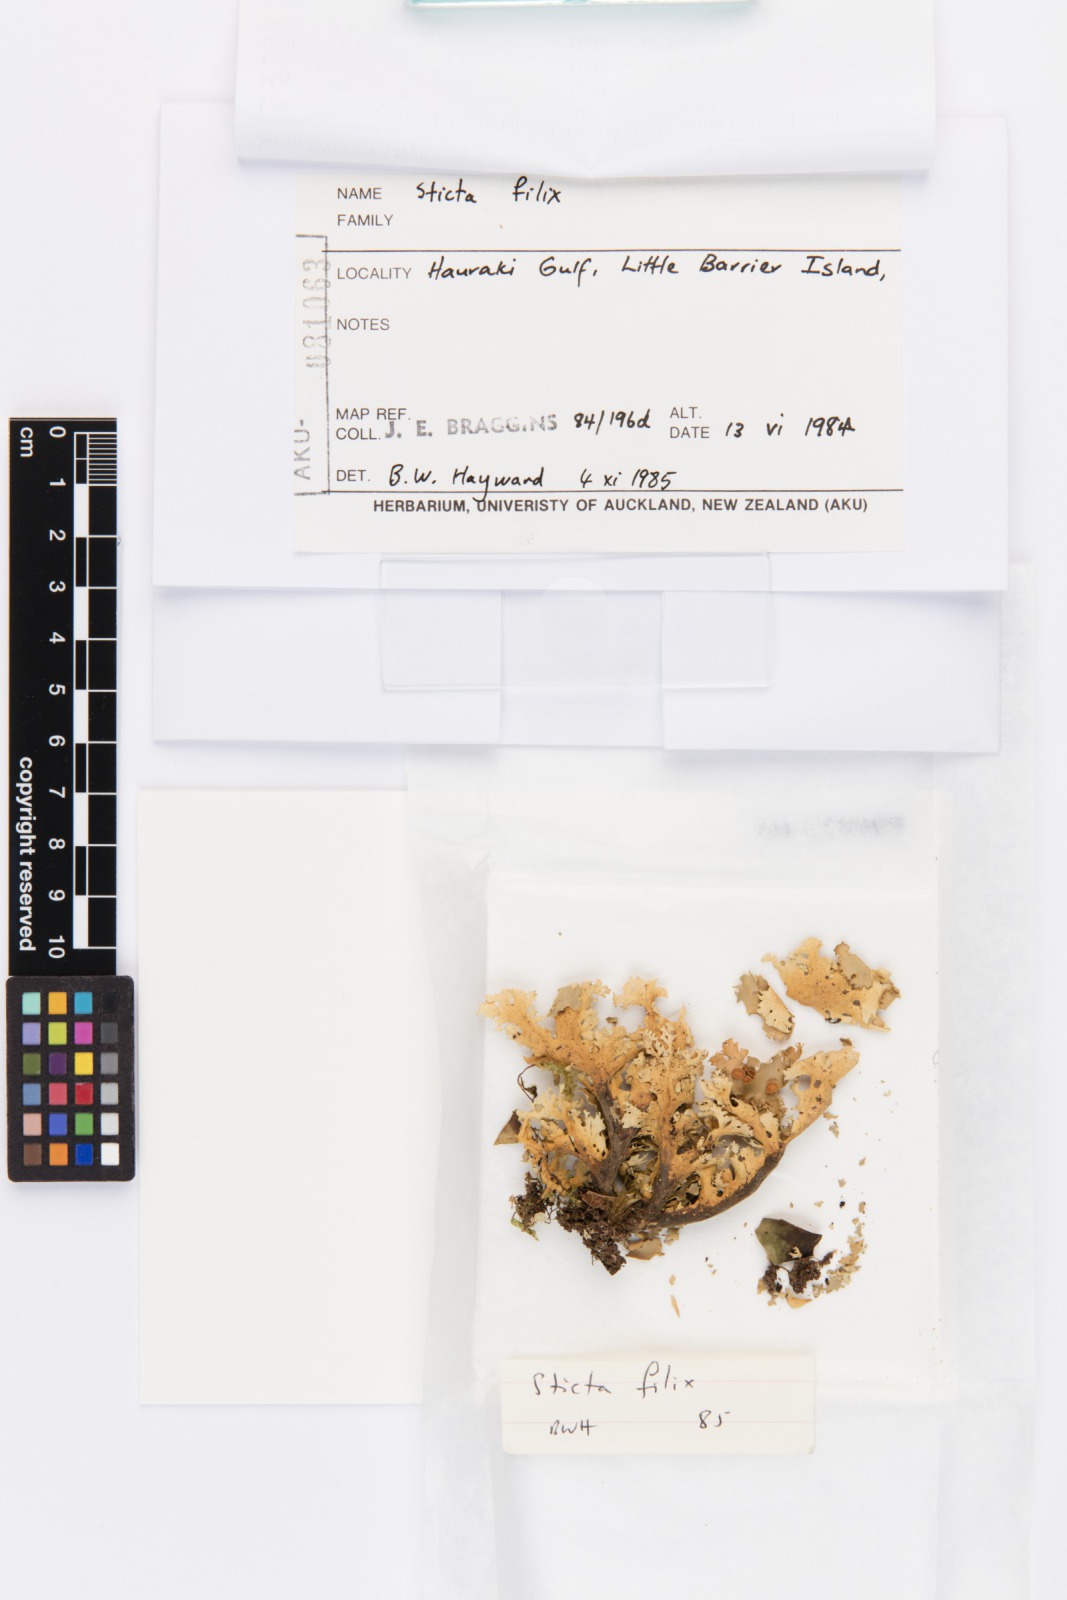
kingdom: Fungi
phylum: Ascomycota
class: Lecanoromycetes
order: Peltigerales
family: Lobariaceae
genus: Sticta
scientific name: Sticta filix
